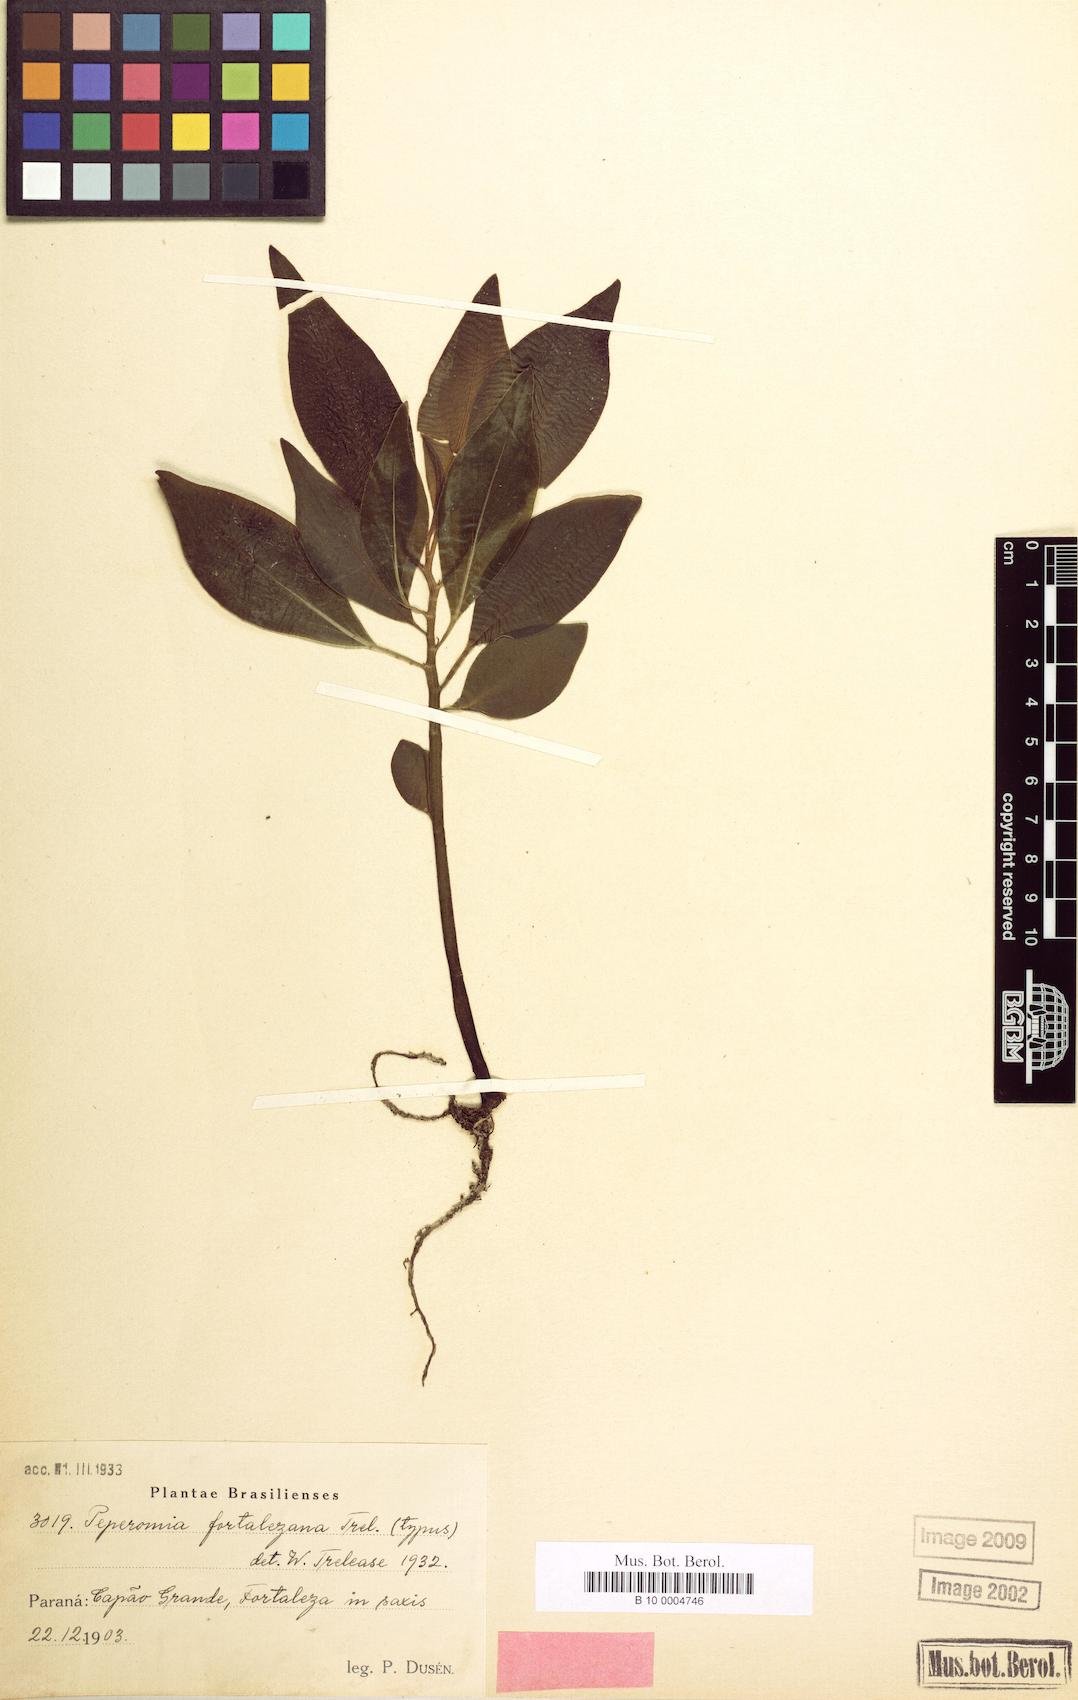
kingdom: Plantae
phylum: Tracheophyta
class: Magnoliopsida
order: Piperales
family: Piperaceae
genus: Peperomia
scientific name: Peperomia
